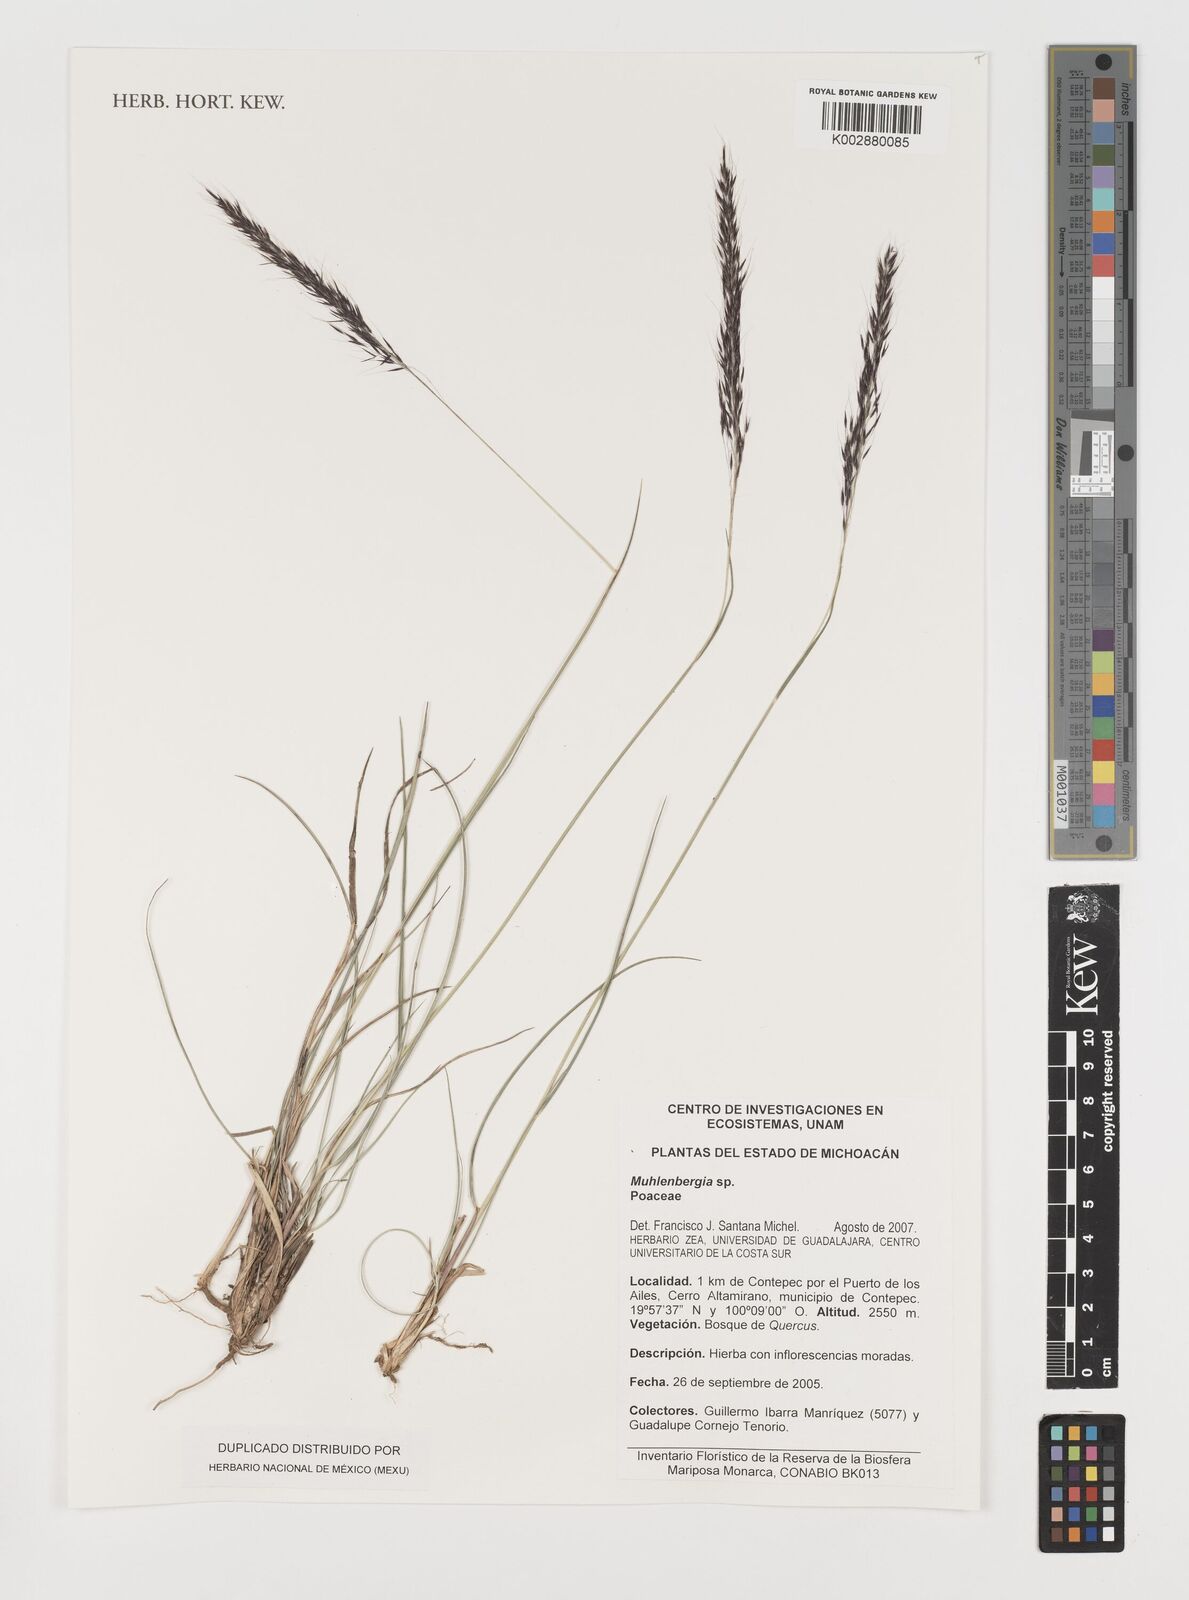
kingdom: Plantae
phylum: Tracheophyta
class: Liliopsida
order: Poales
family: Poaceae
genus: Muhlenbergia
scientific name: Muhlenbergia
